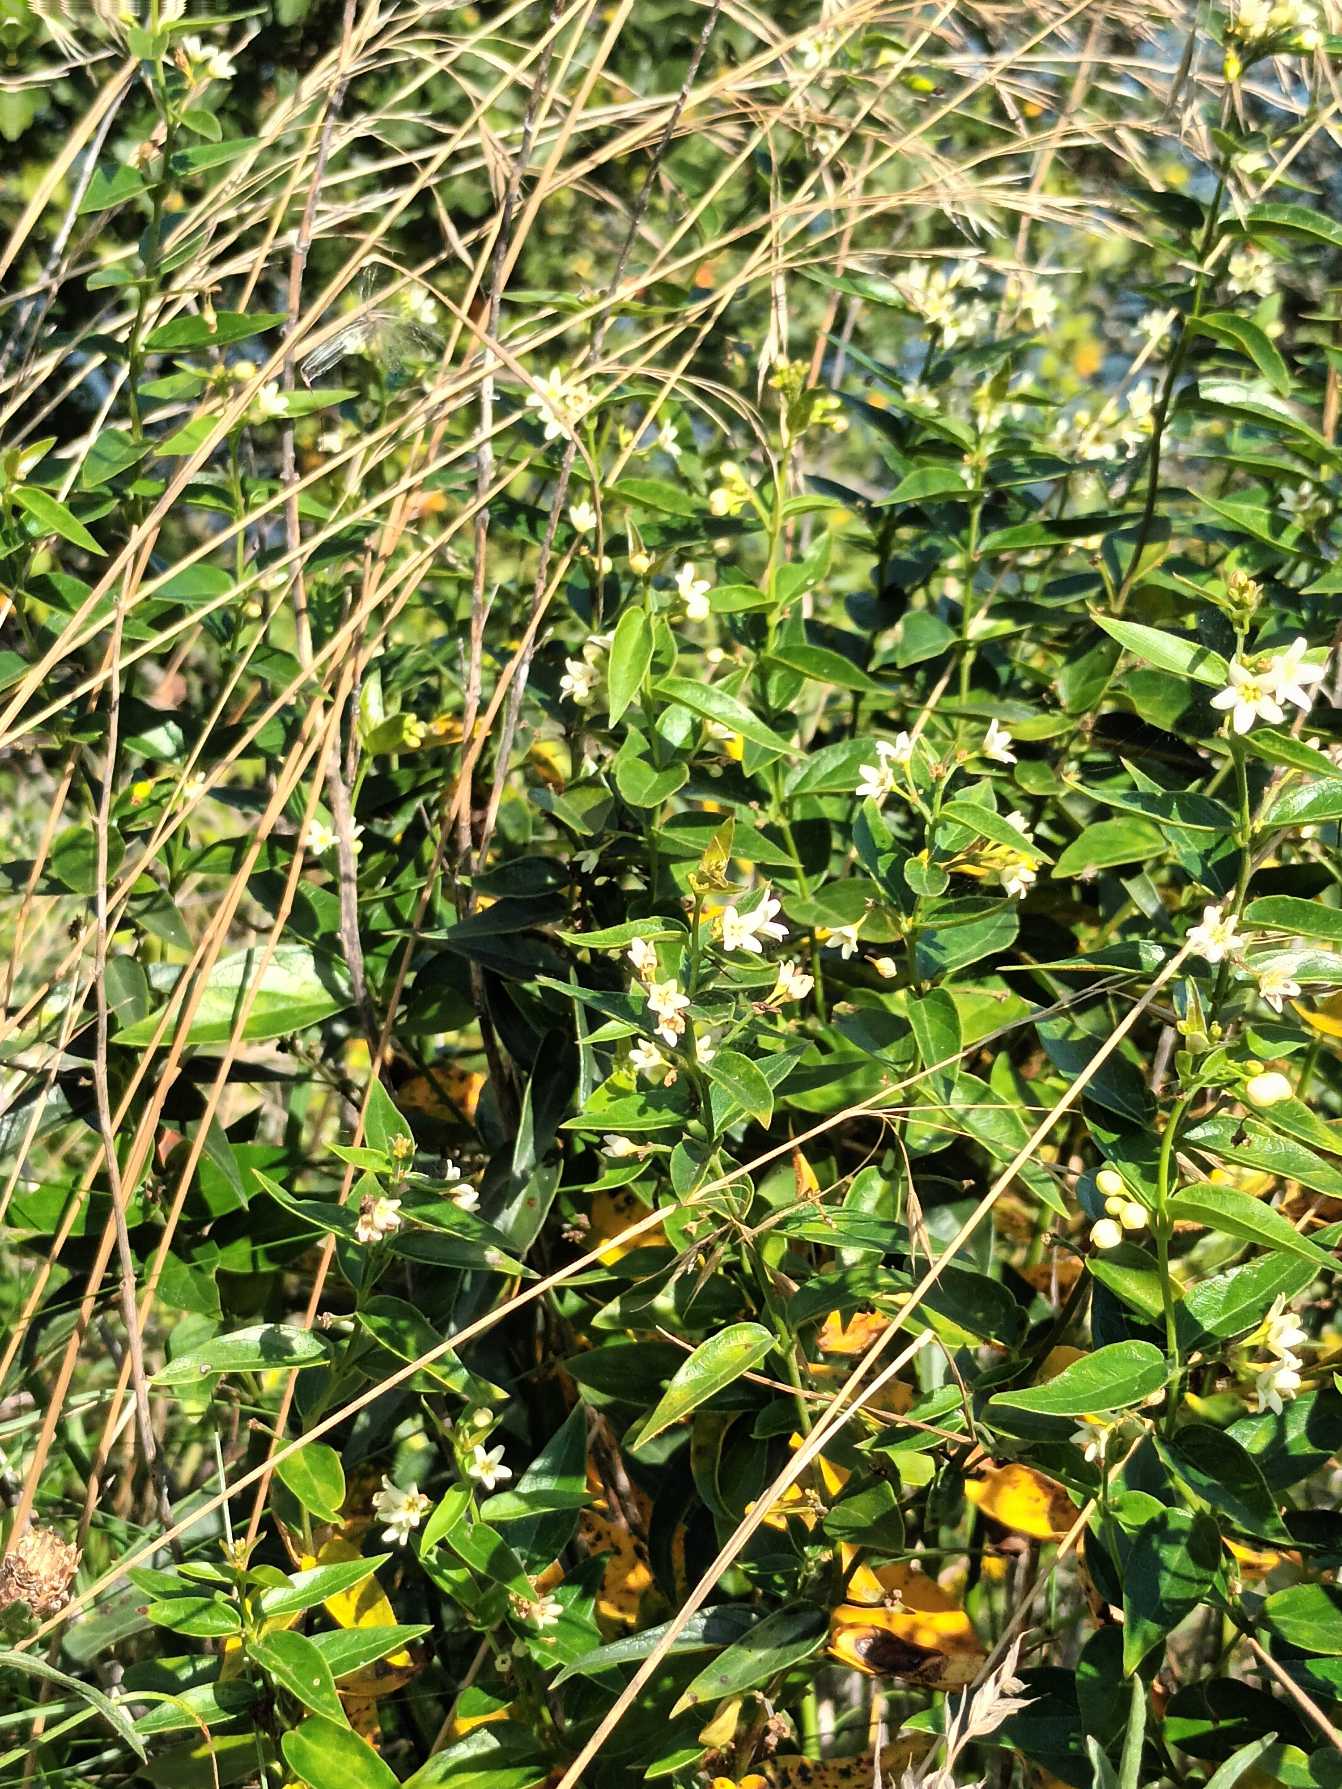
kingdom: Plantae
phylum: Tracheophyta
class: Magnoliopsida
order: Gentianales
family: Apocynaceae
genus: Vincetoxicum
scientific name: Vincetoxicum hirundinaria
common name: Svalerod
